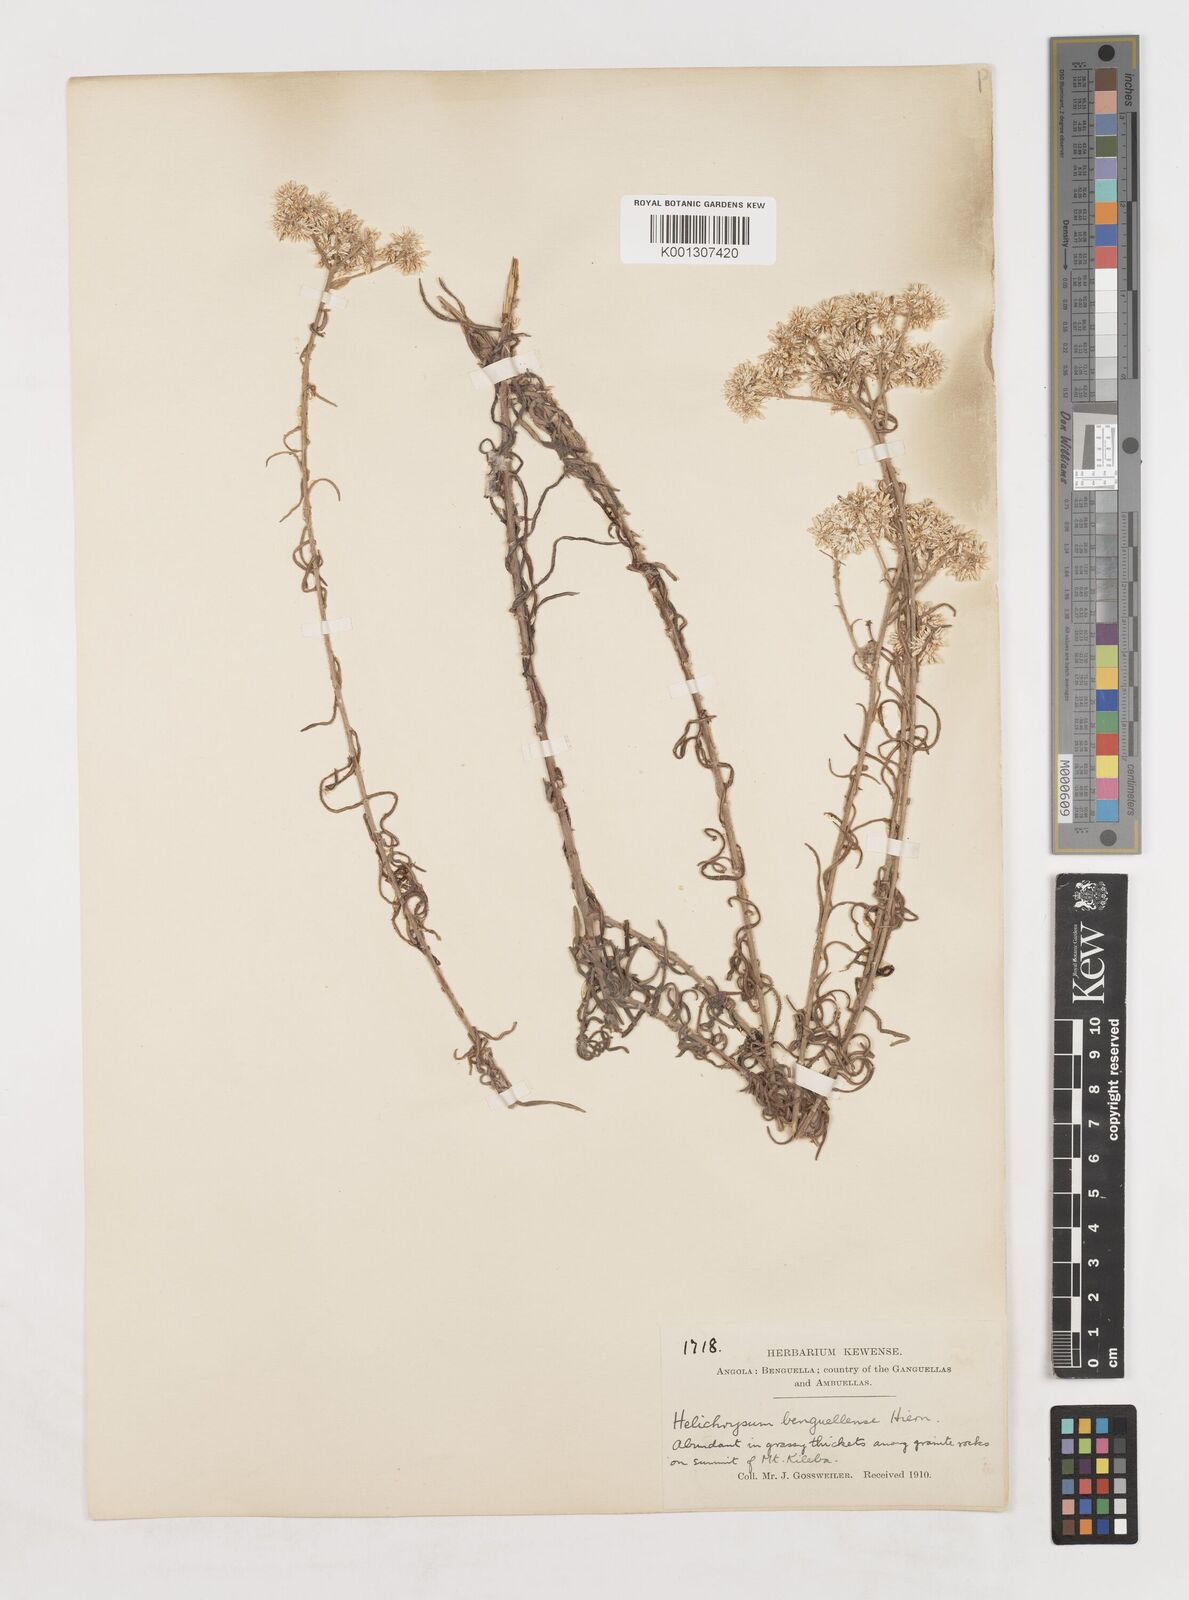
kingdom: Plantae
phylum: Tracheophyta
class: Magnoliopsida
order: Asterales
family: Asteraceae
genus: Helichrysum
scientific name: Helichrysum benguellense
